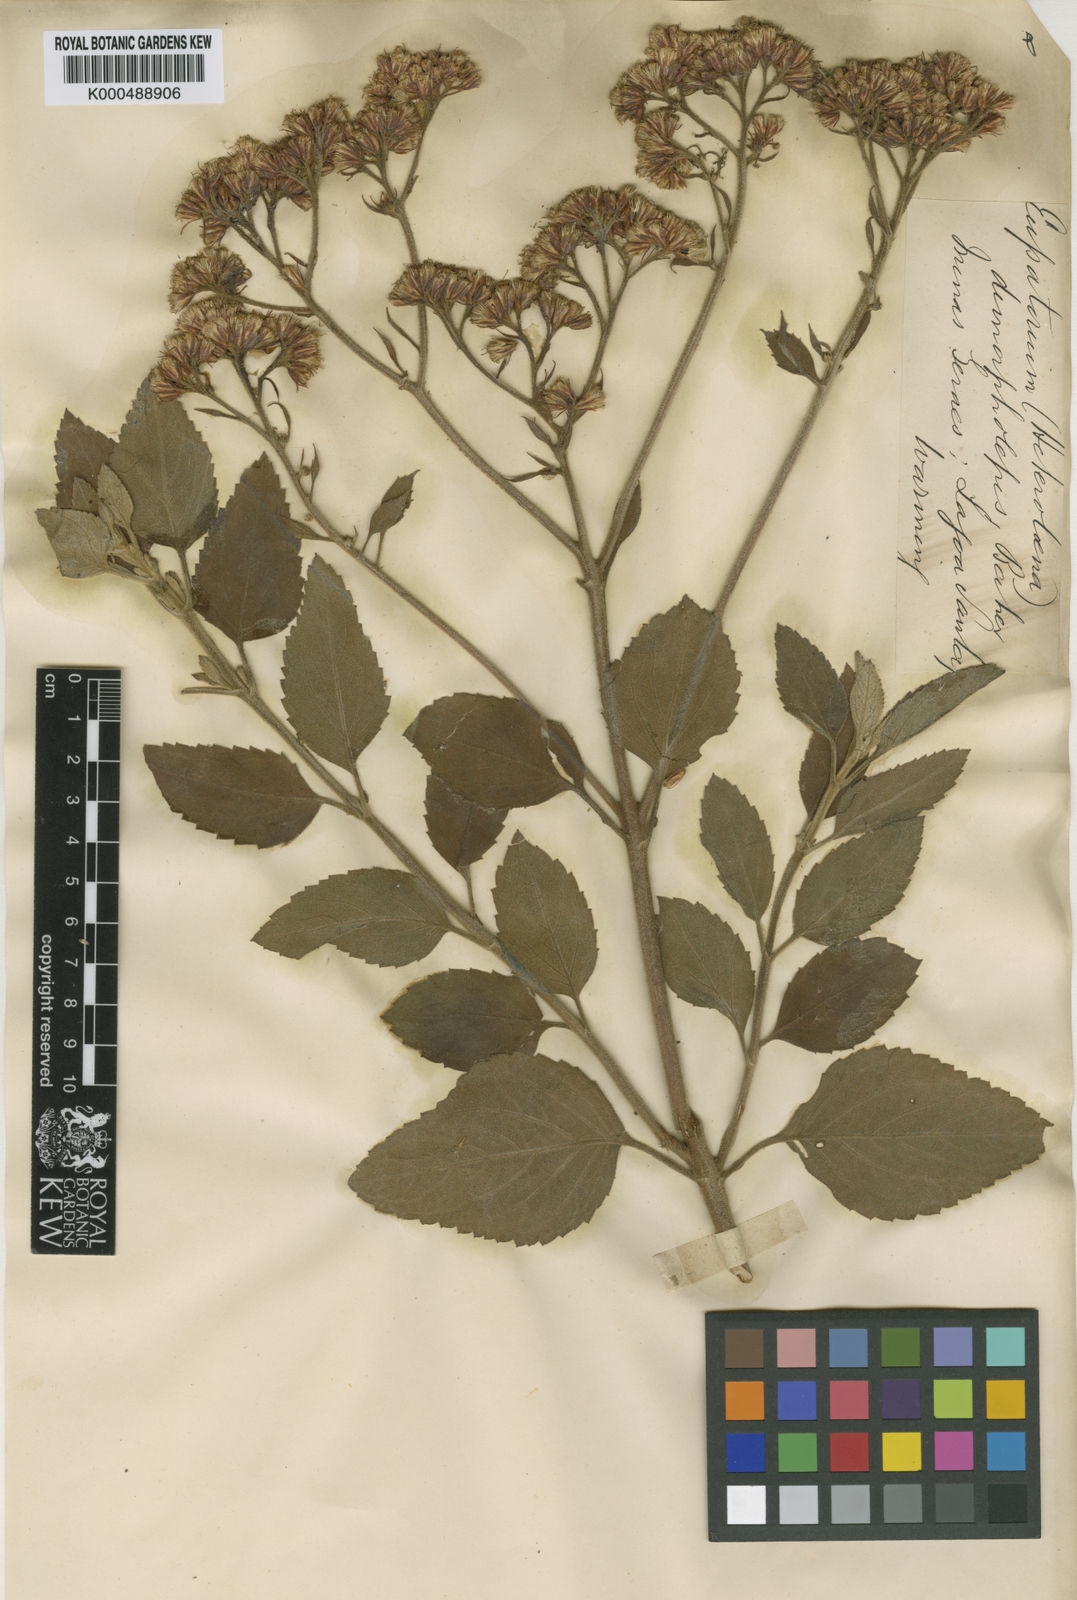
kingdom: Plantae
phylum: Tracheophyta
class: Magnoliopsida
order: Asterales
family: Asteraceae
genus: Grazielia
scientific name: Grazielia dimorpholepis
